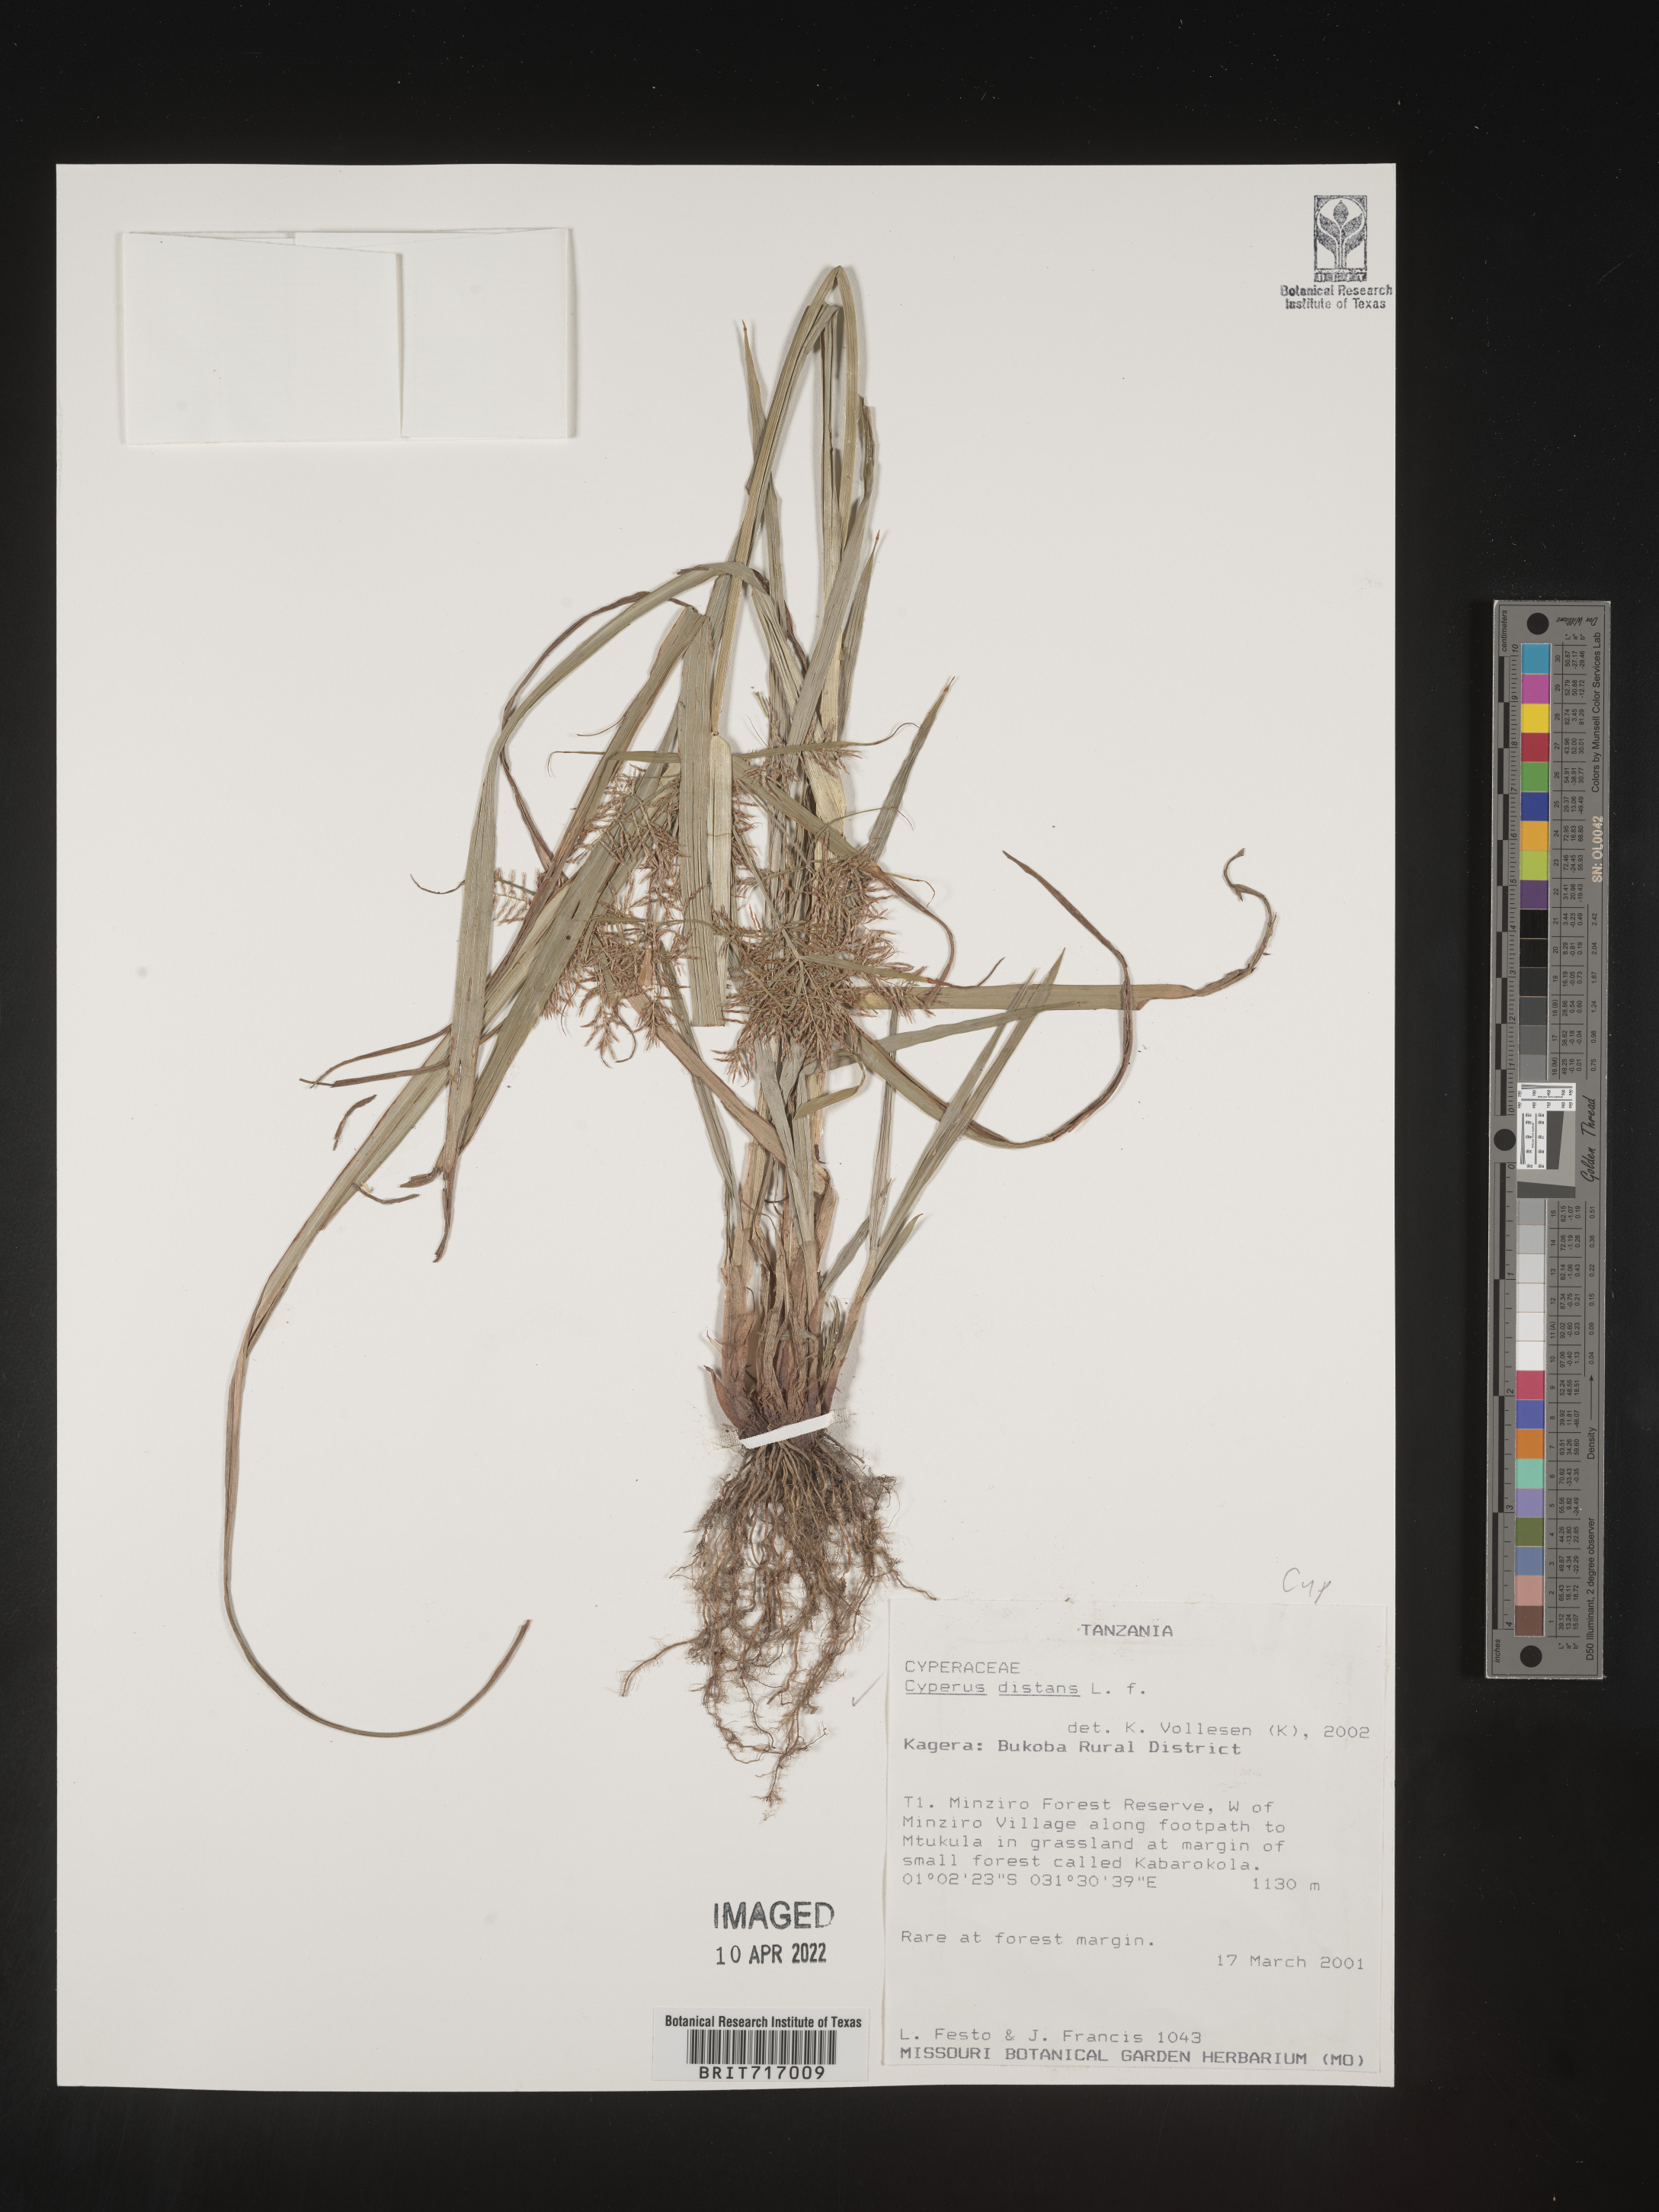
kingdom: Plantae
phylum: Tracheophyta
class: Liliopsida
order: Poales
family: Cyperaceae
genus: Cyperus
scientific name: Cyperus
